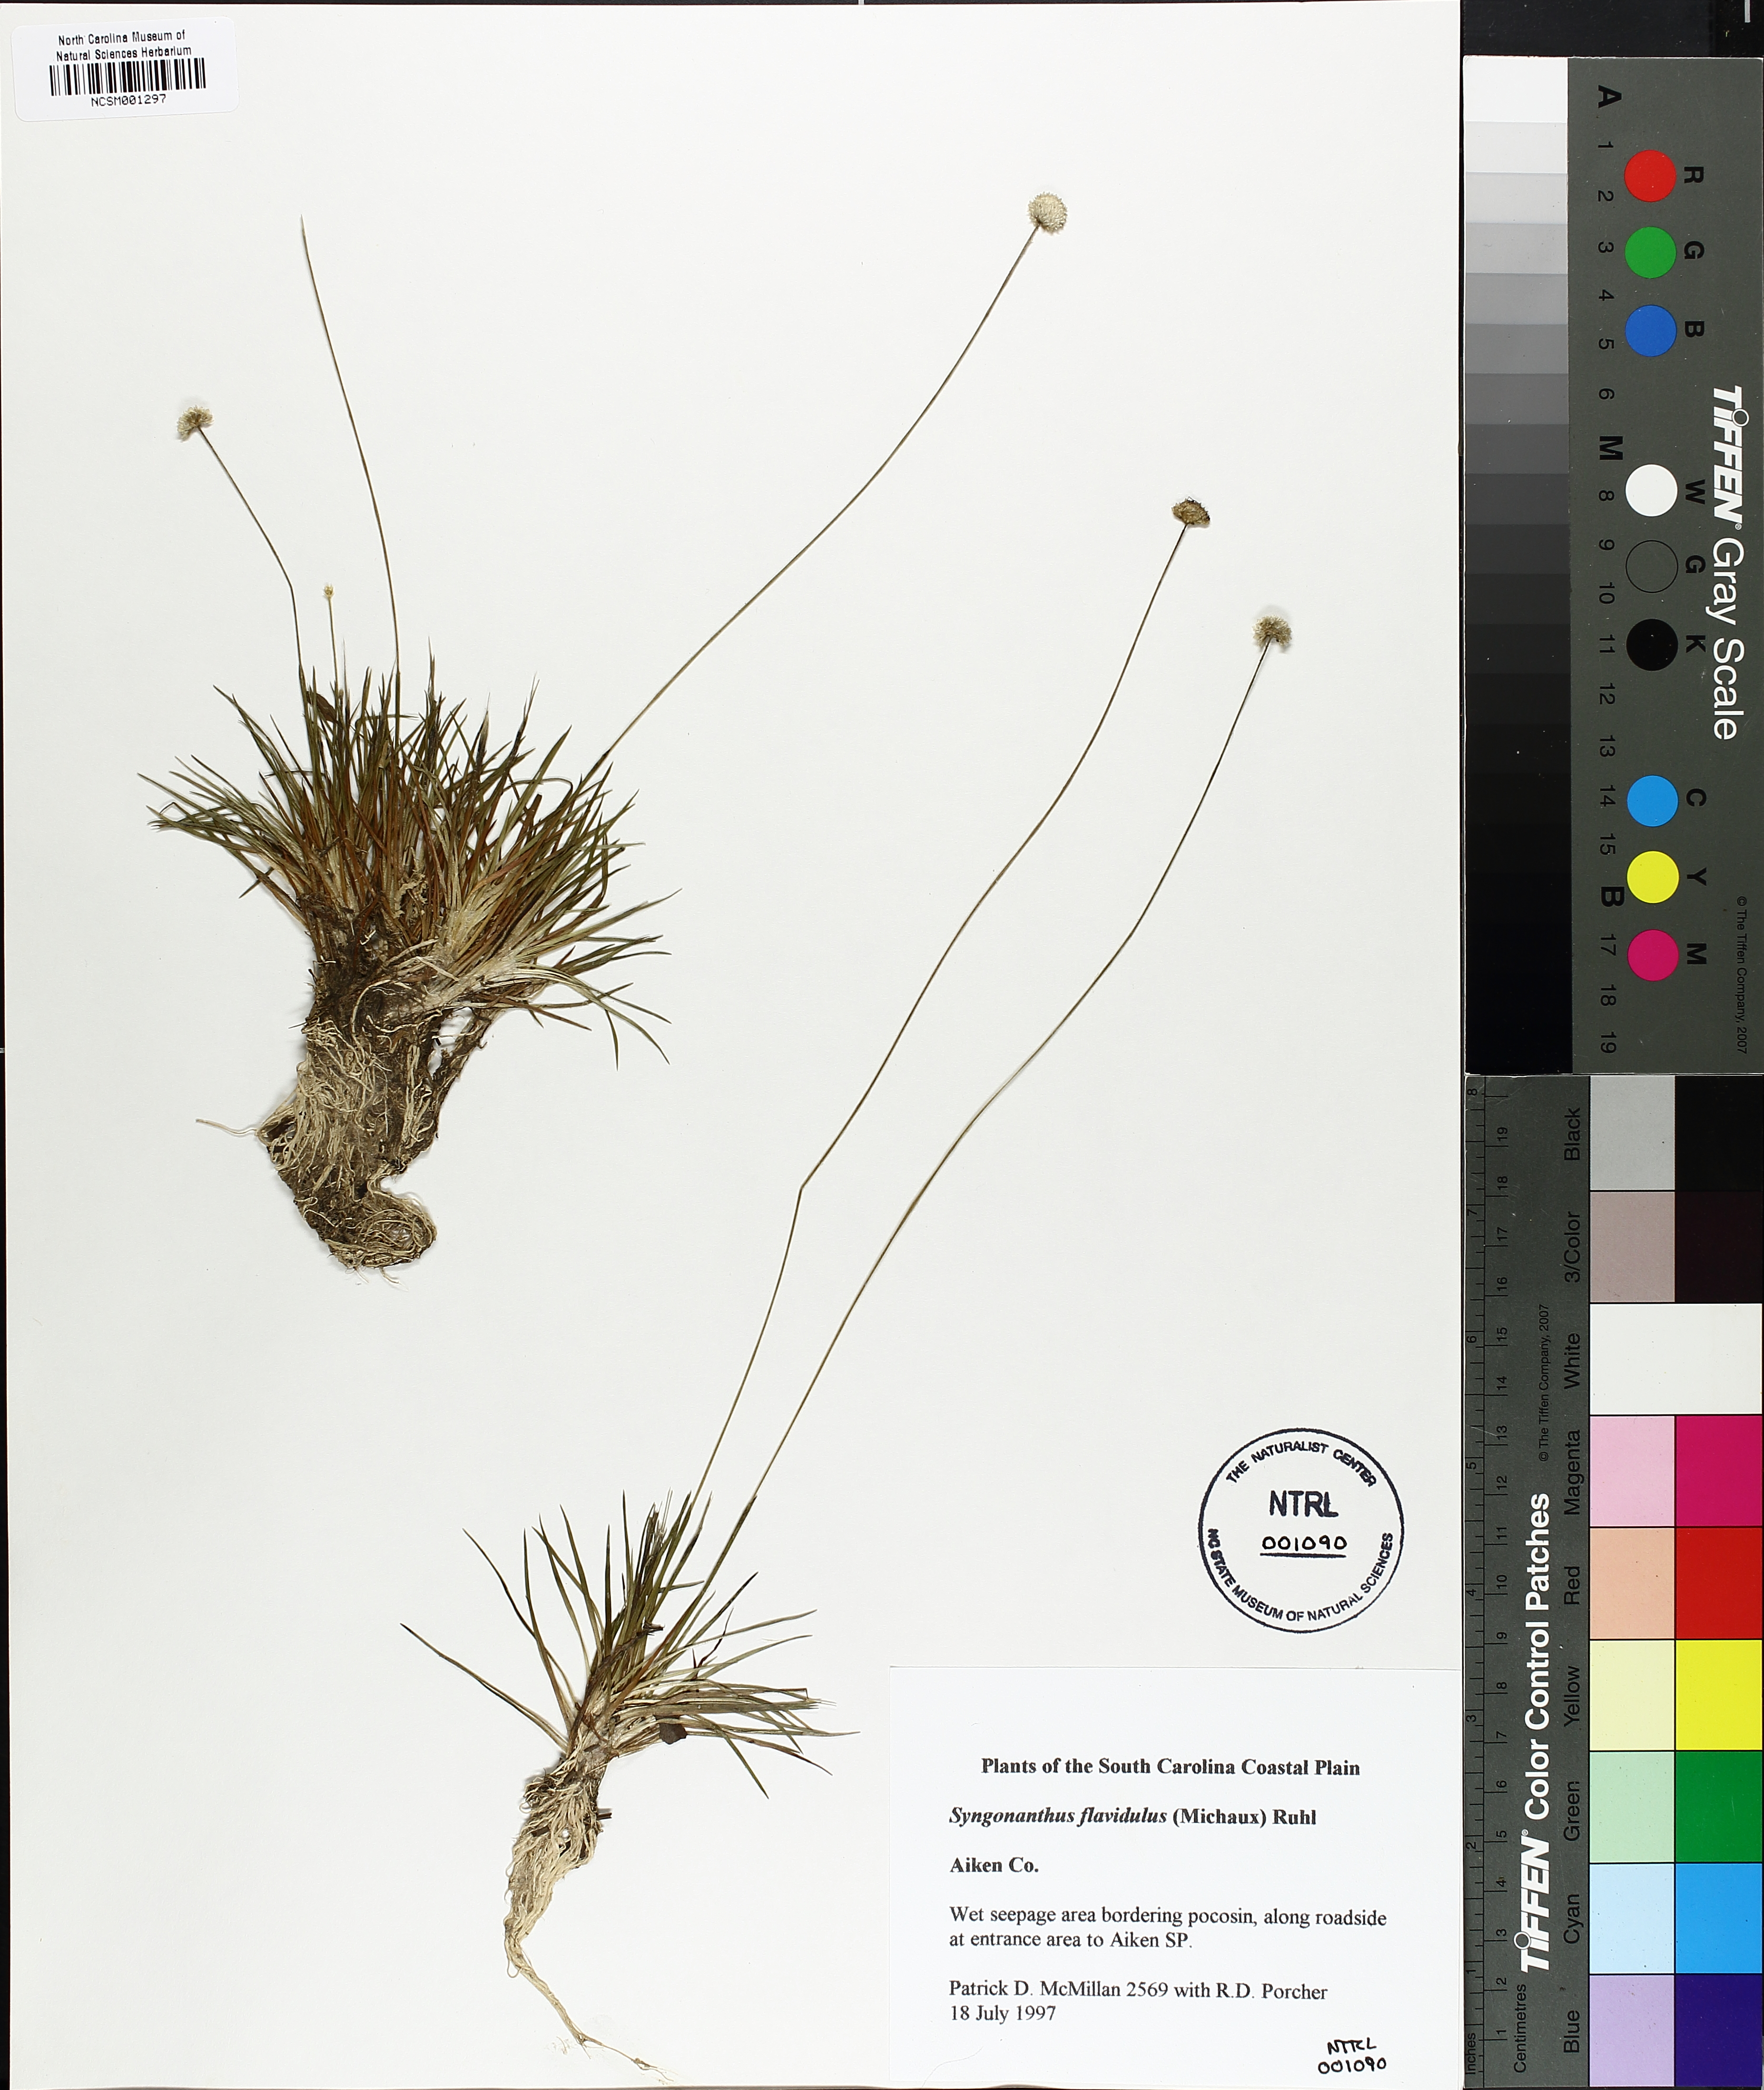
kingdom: Plantae
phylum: Tracheophyta
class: Liliopsida
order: Poales
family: Eriocaulaceae
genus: Syngonanthus
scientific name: Syngonanthus flavidulus
